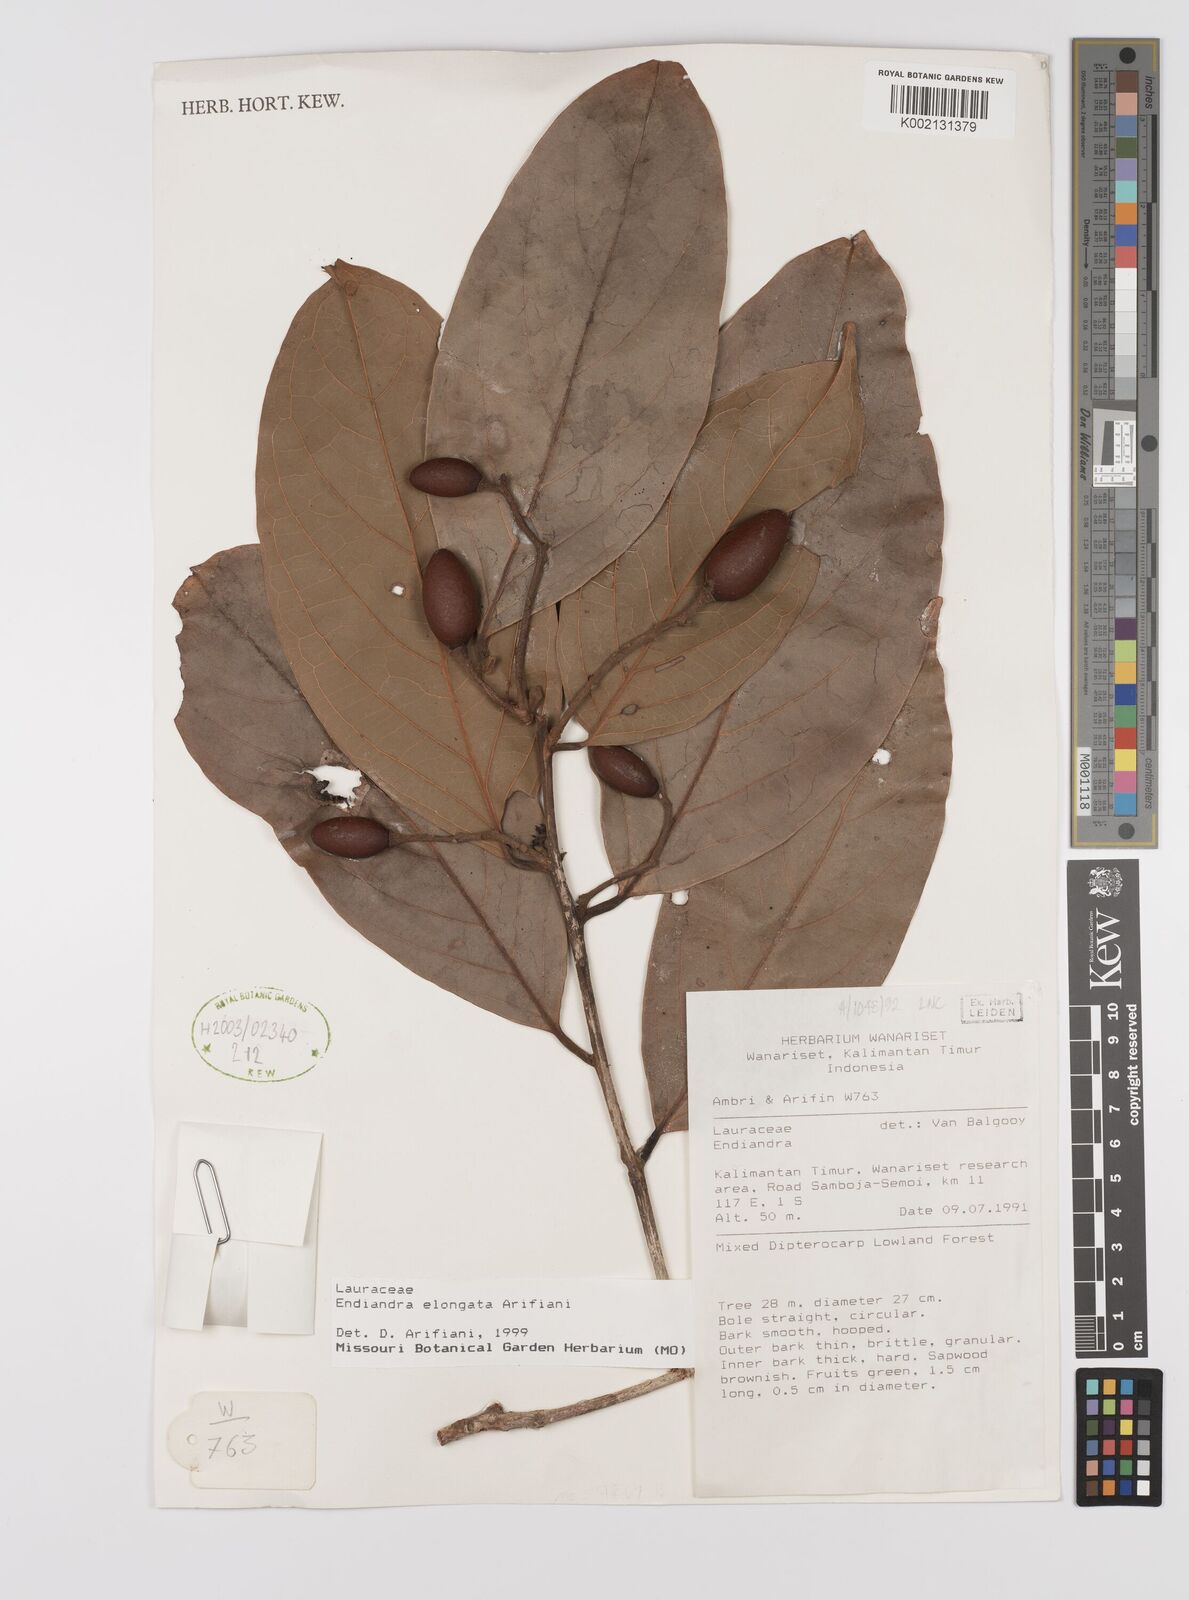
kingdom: Plantae
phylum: Tracheophyta
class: Magnoliopsida
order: Laurales
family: Lauraceae
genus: Endiandra
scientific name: Endiandra elongata
